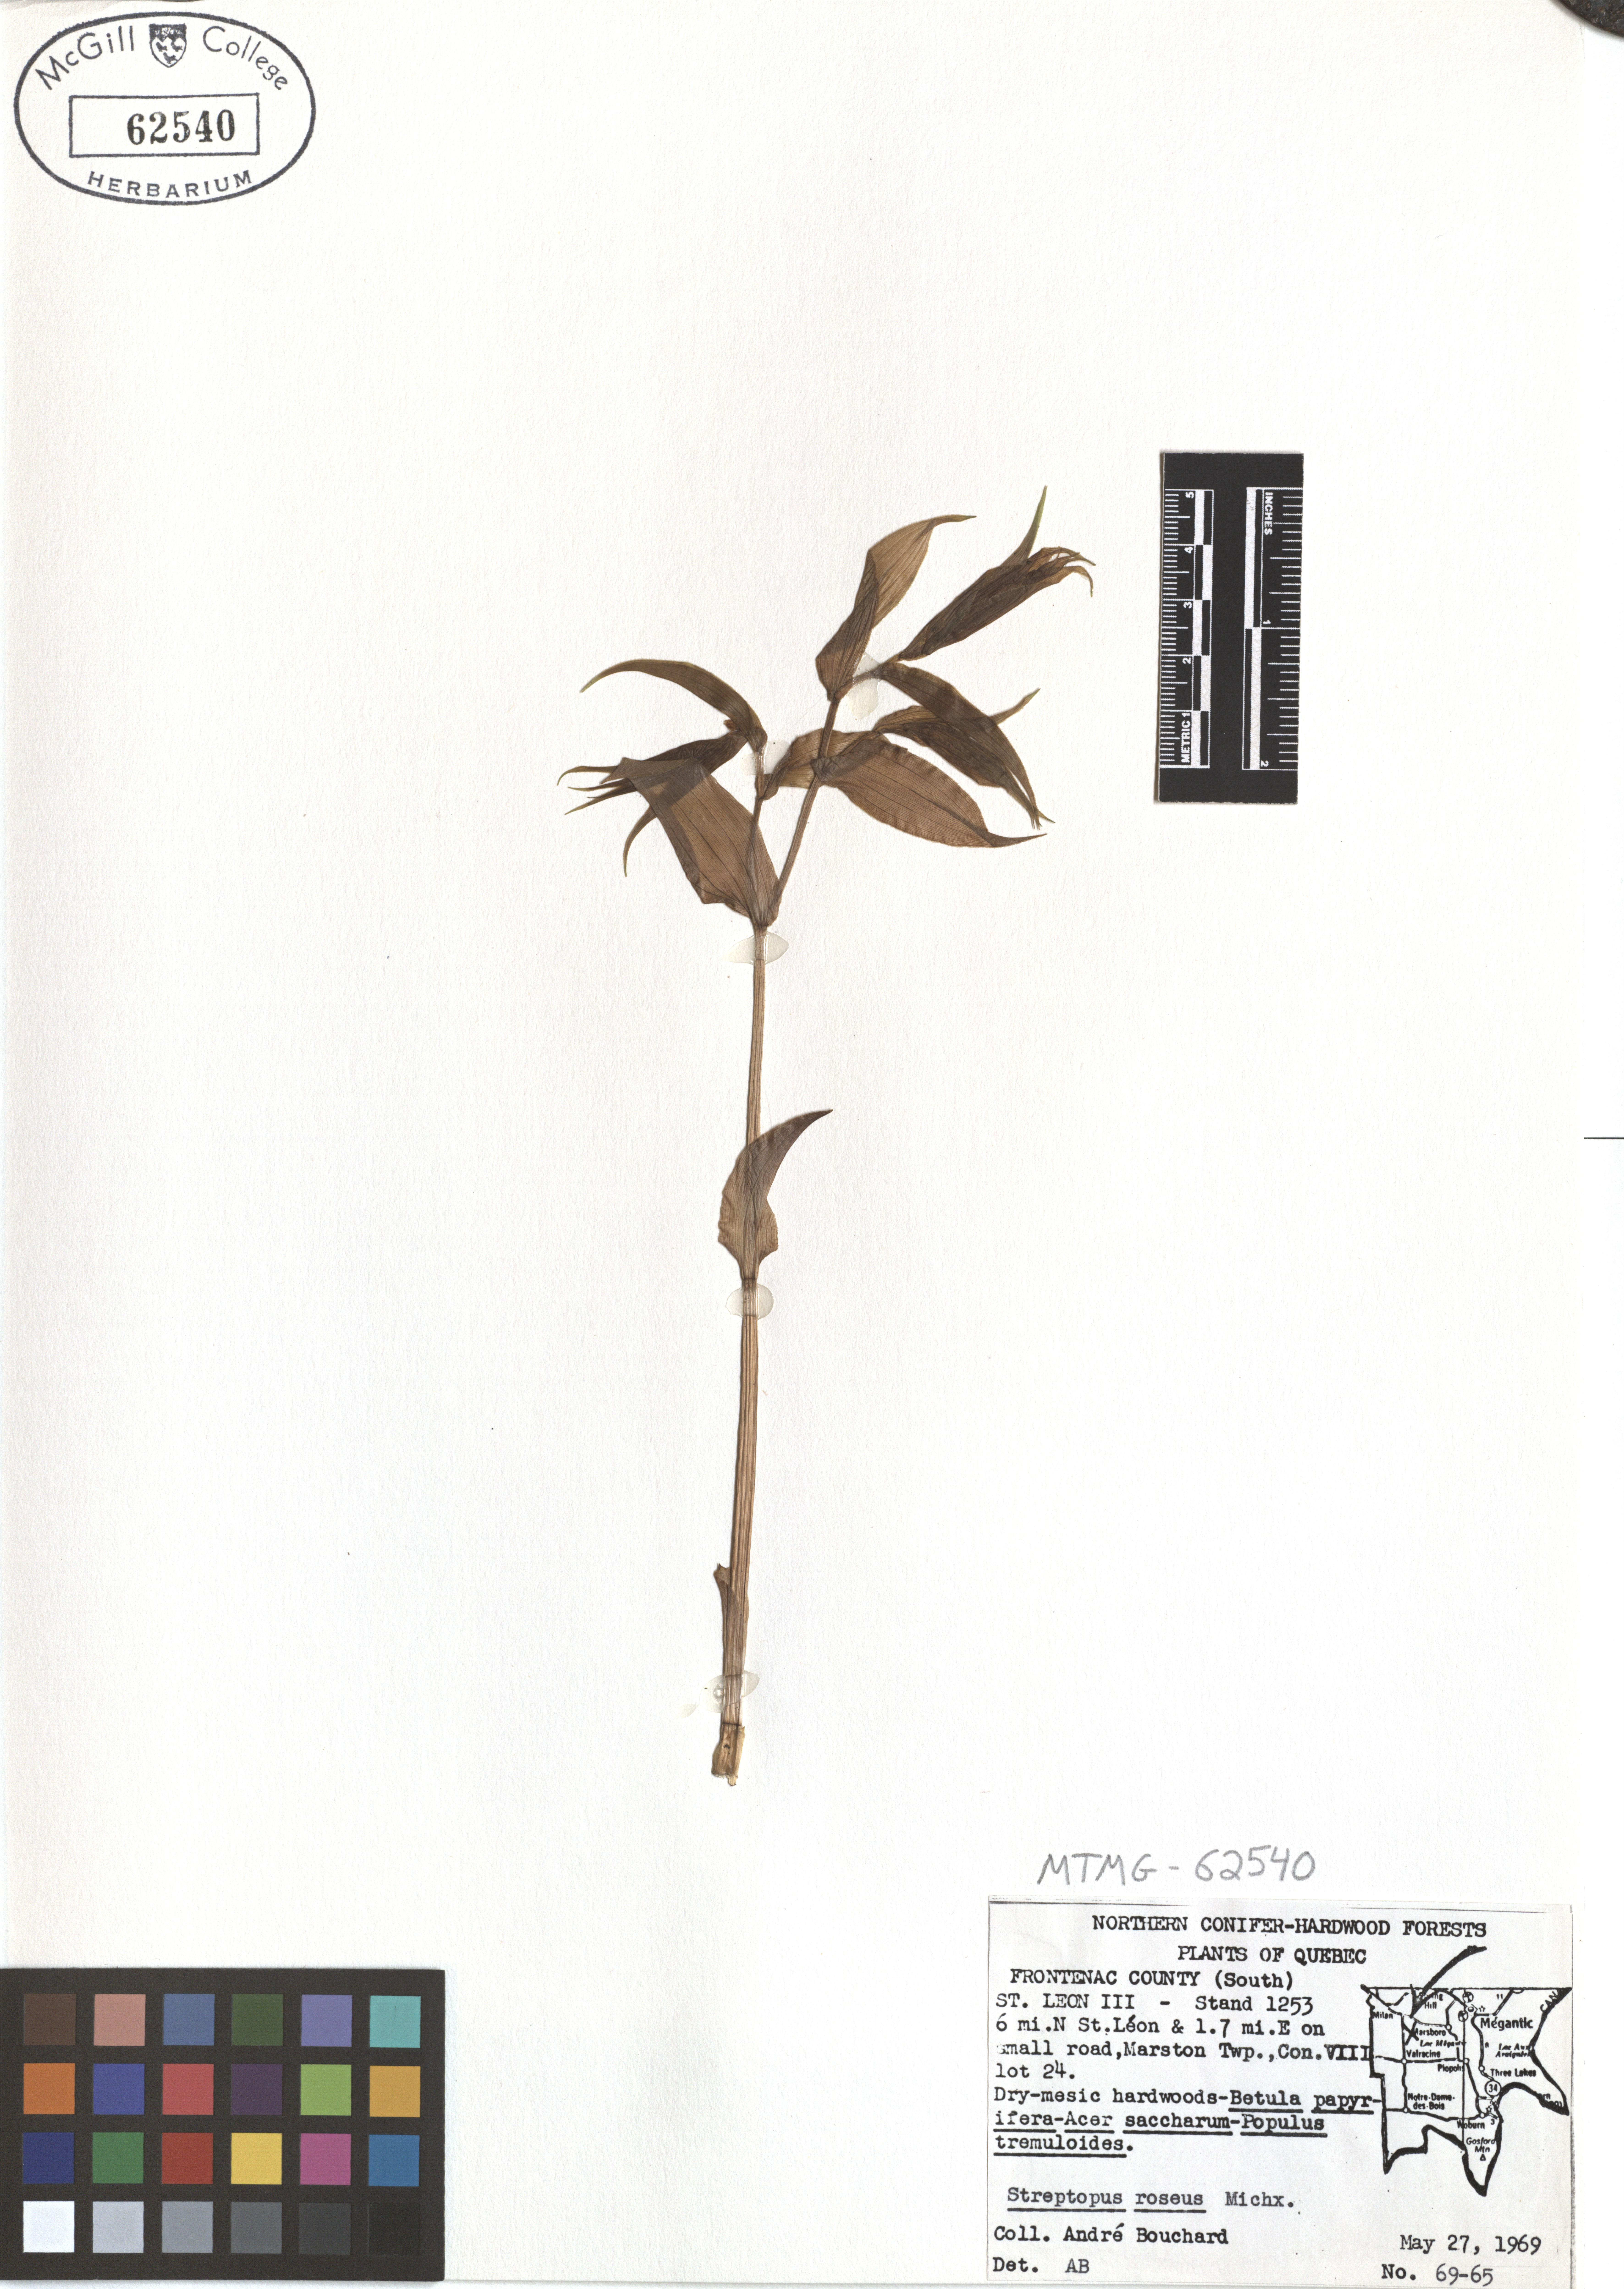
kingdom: Plantae
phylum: Tracheophyta
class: Liliopsida
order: Liliales
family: Liliaceae
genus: Streptopus
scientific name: Streptopus lanceolatus
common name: Rose mandarin
